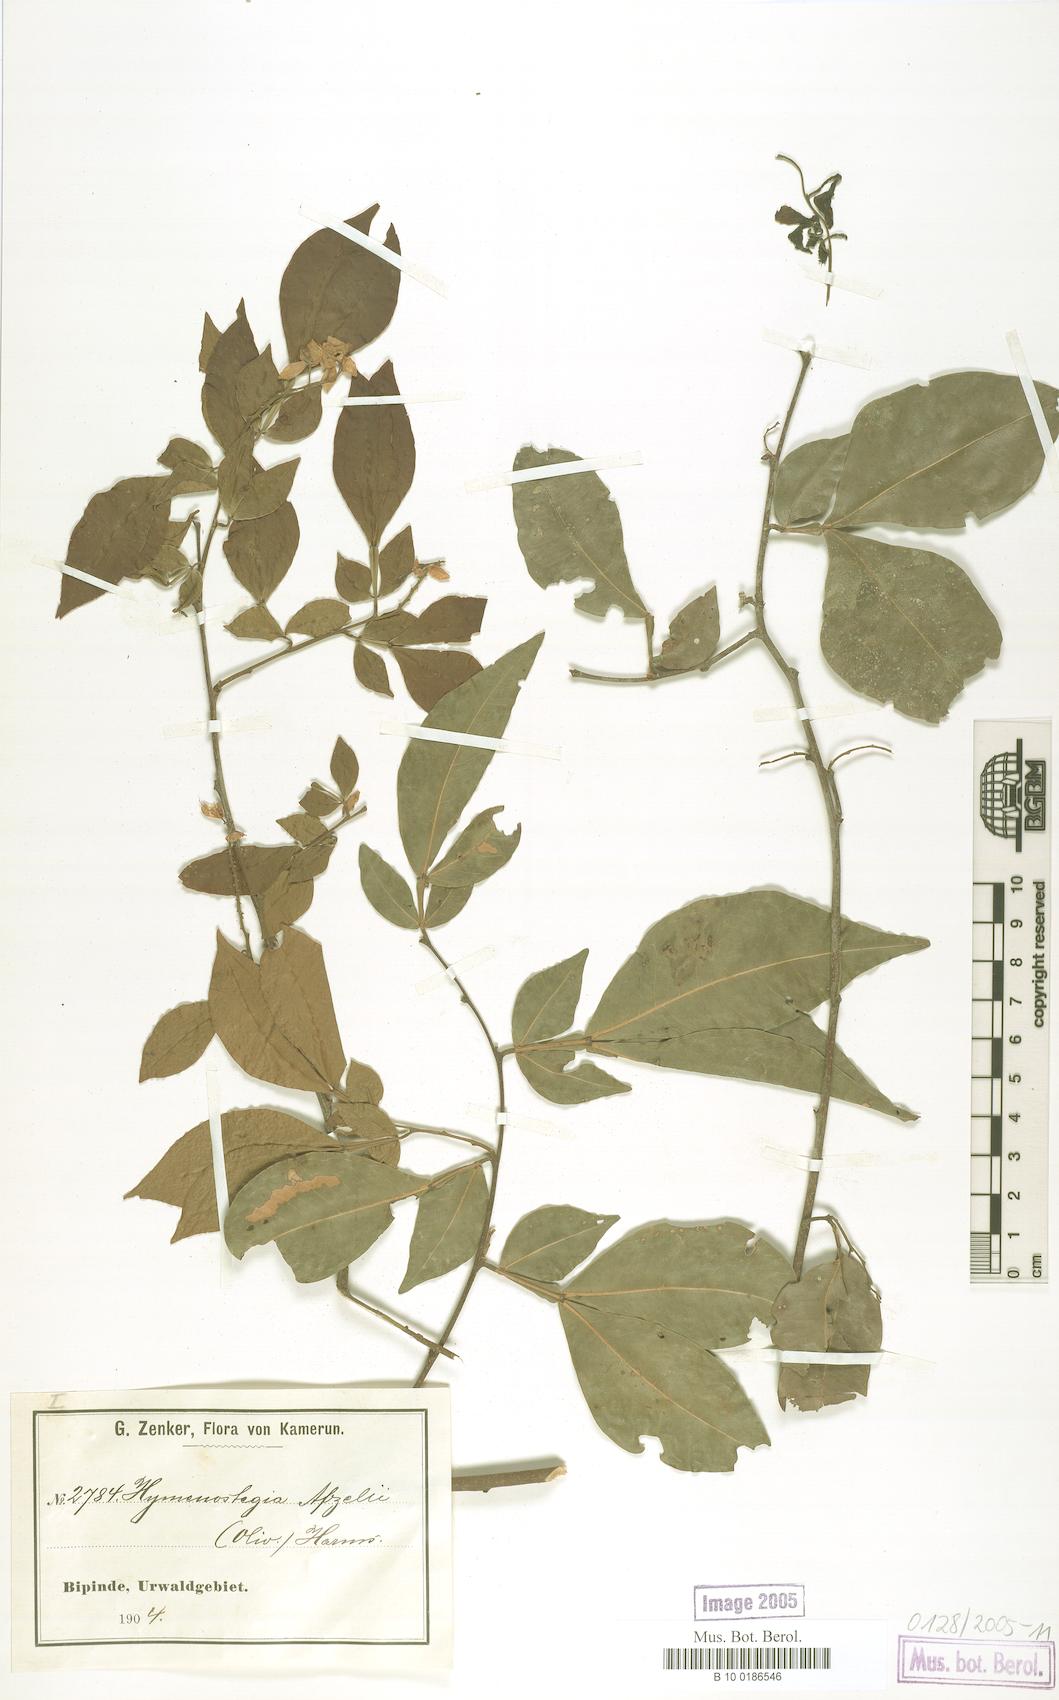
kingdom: Plantae
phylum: Tracheophyta
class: Magnoliopsida
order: Fabales
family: Fabaceae
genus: Annea
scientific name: Annea afzelii
